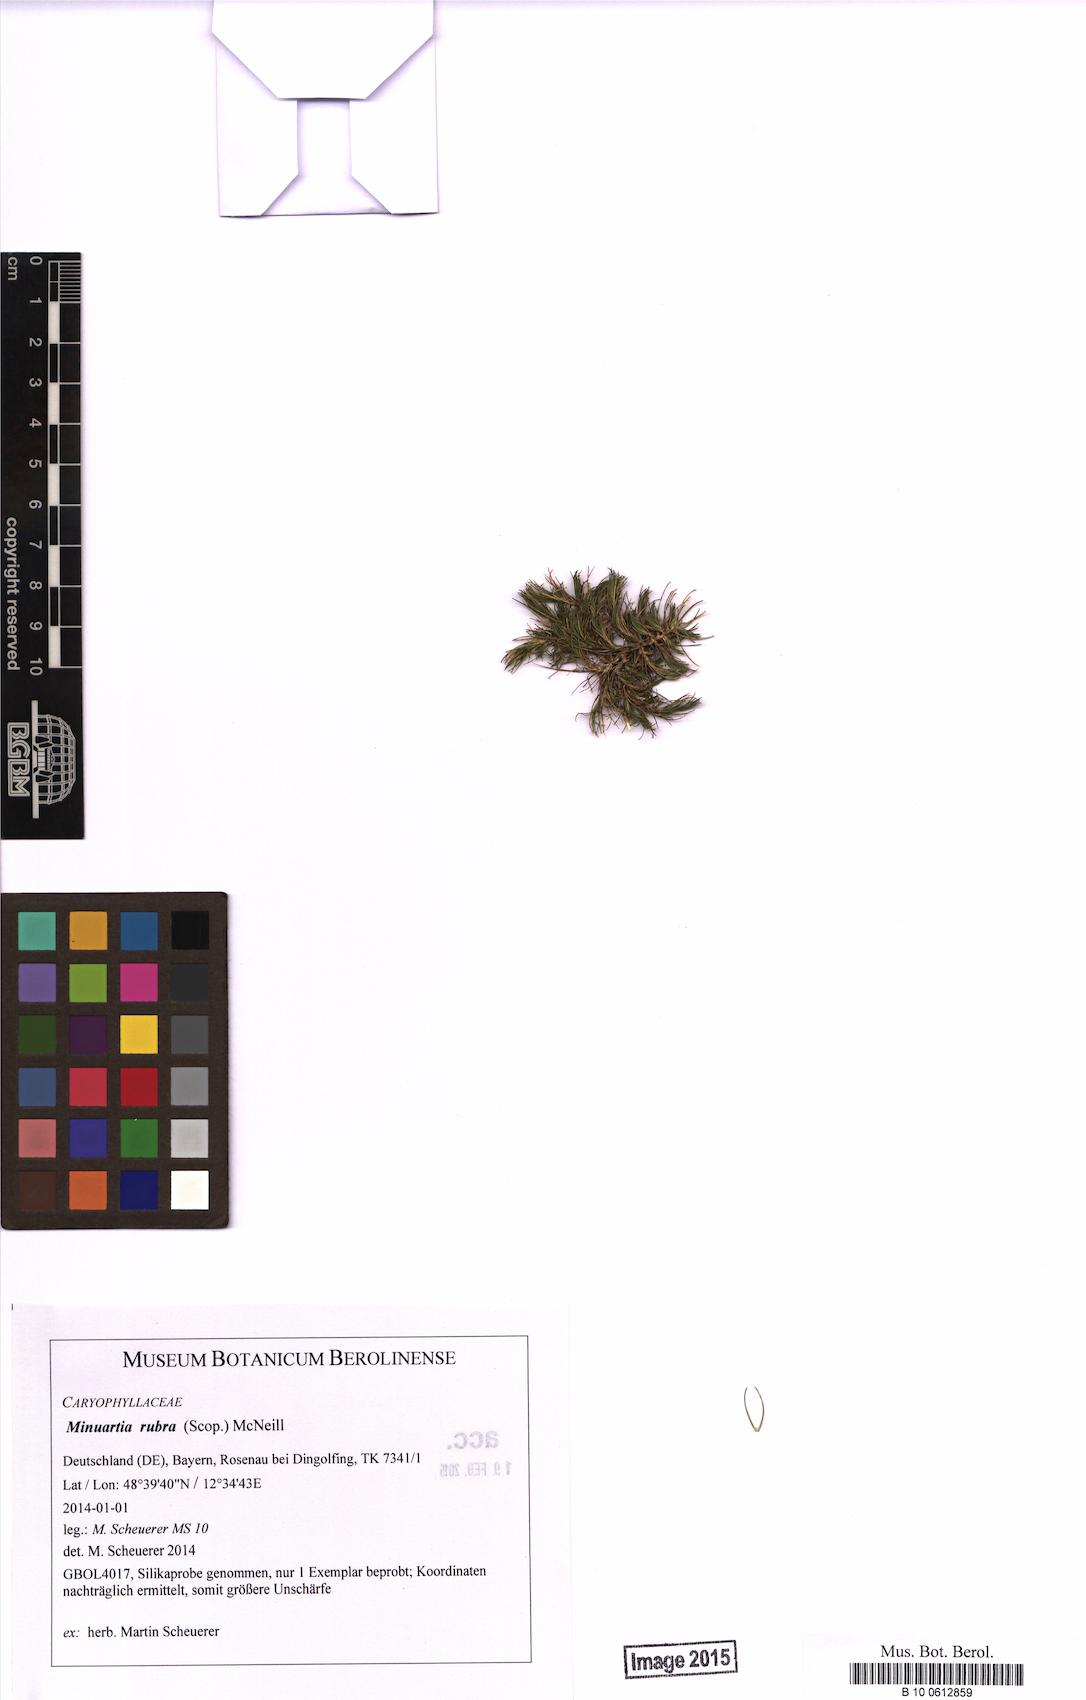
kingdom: Plantae
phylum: Tracheophyta
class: Magnoliopsida
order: Caryophyllales
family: Caryophyllaceae
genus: Minuartia
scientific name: Minuartia mucronata
